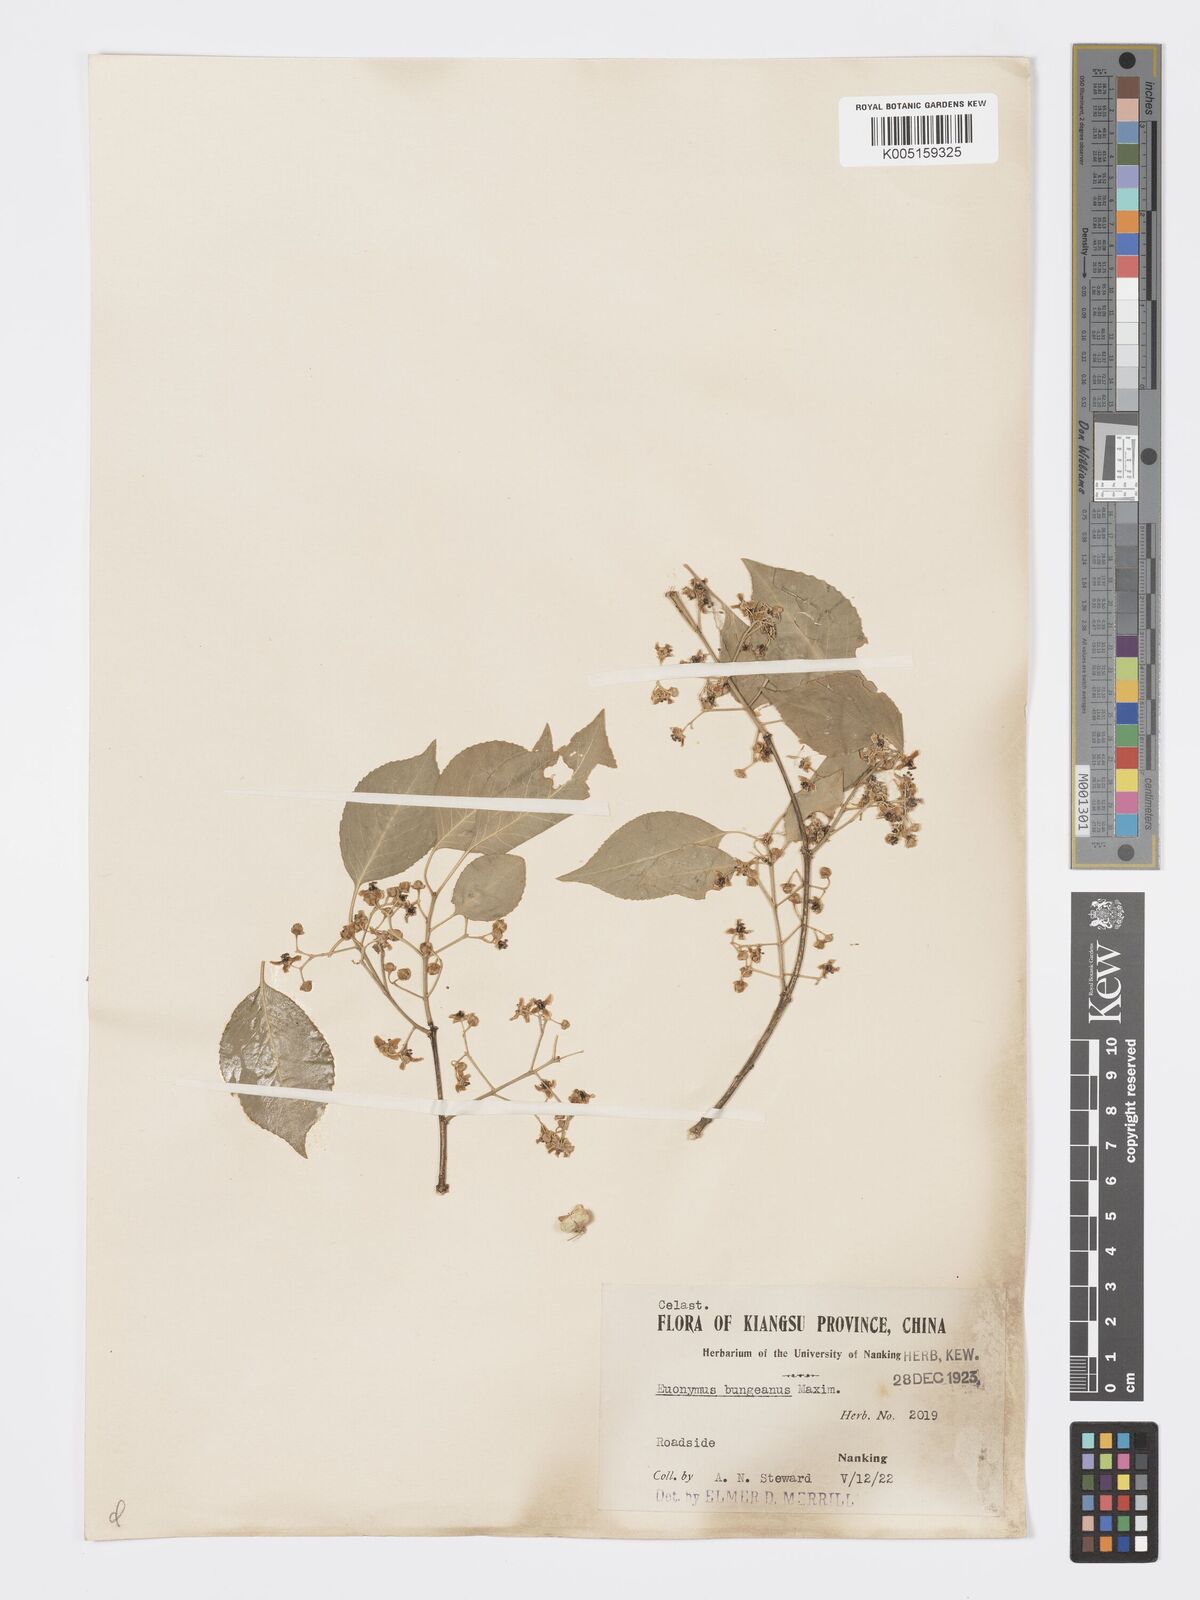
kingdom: Plantae
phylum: Tracheophyta
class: Magnoliopsida
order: Celastrales
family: Celastraceae
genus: Euonymus
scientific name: Euonymus maackii
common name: Hamilton's spindletree
